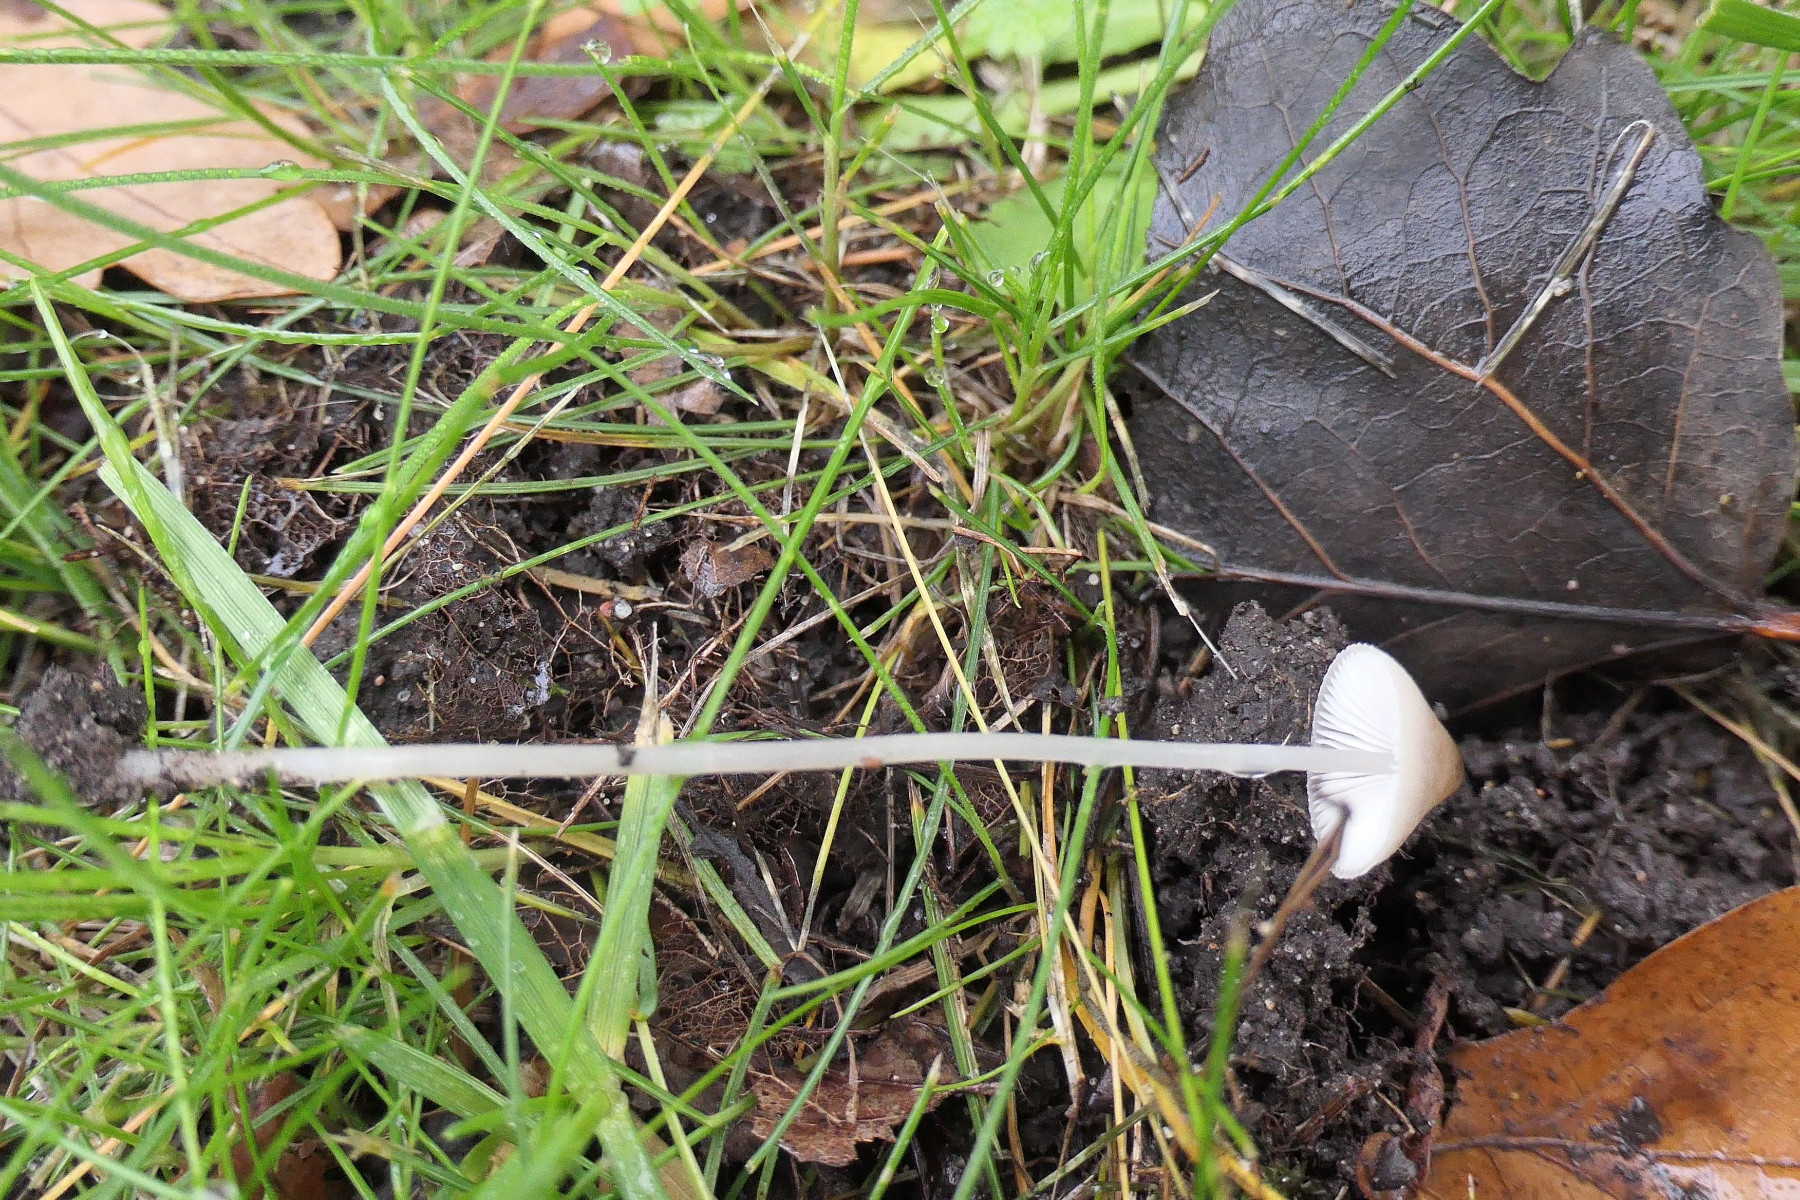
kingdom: Fungi
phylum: Basidiomycota
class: Agaricomycetes
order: Agaricales
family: Mycenaceae
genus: Mycena
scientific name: Mycena vitilis
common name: blankstokket huesvamp
